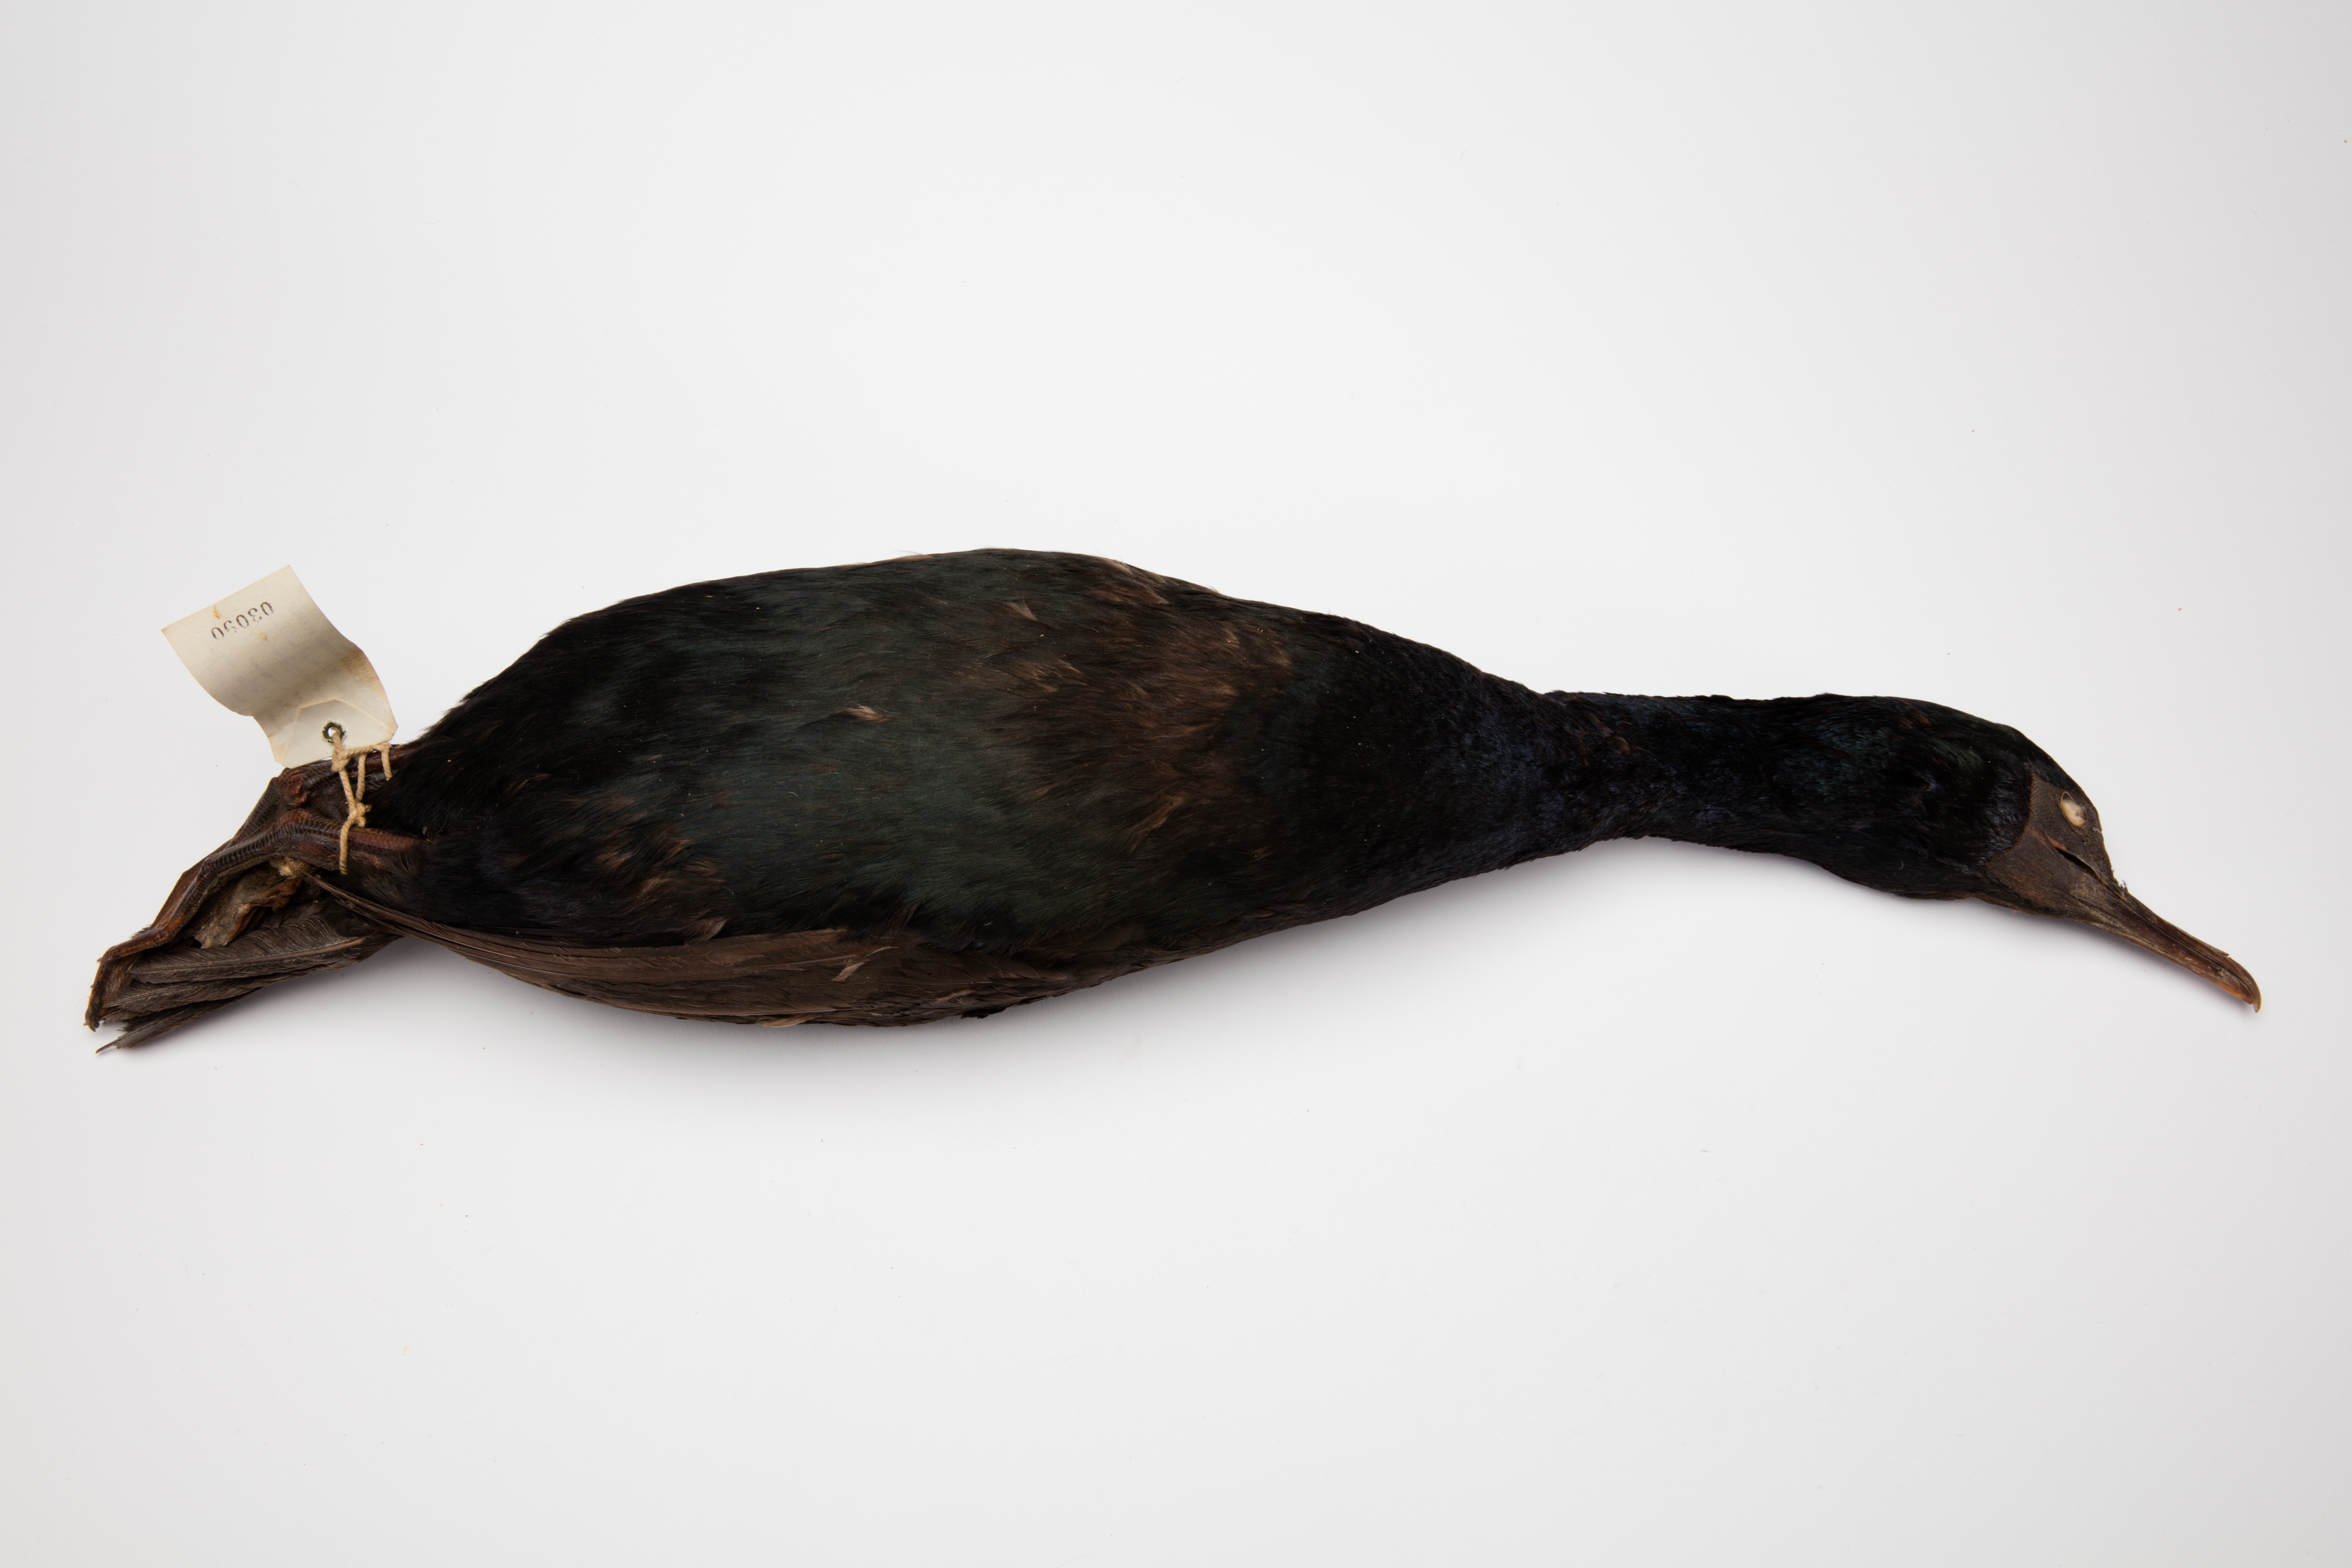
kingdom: Animalia
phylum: Chordata
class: Aves
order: Suliformes
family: Phalacrocoracidae
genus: Leucocarbo
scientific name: Leucocarbo chalconotus
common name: Stewart shag
